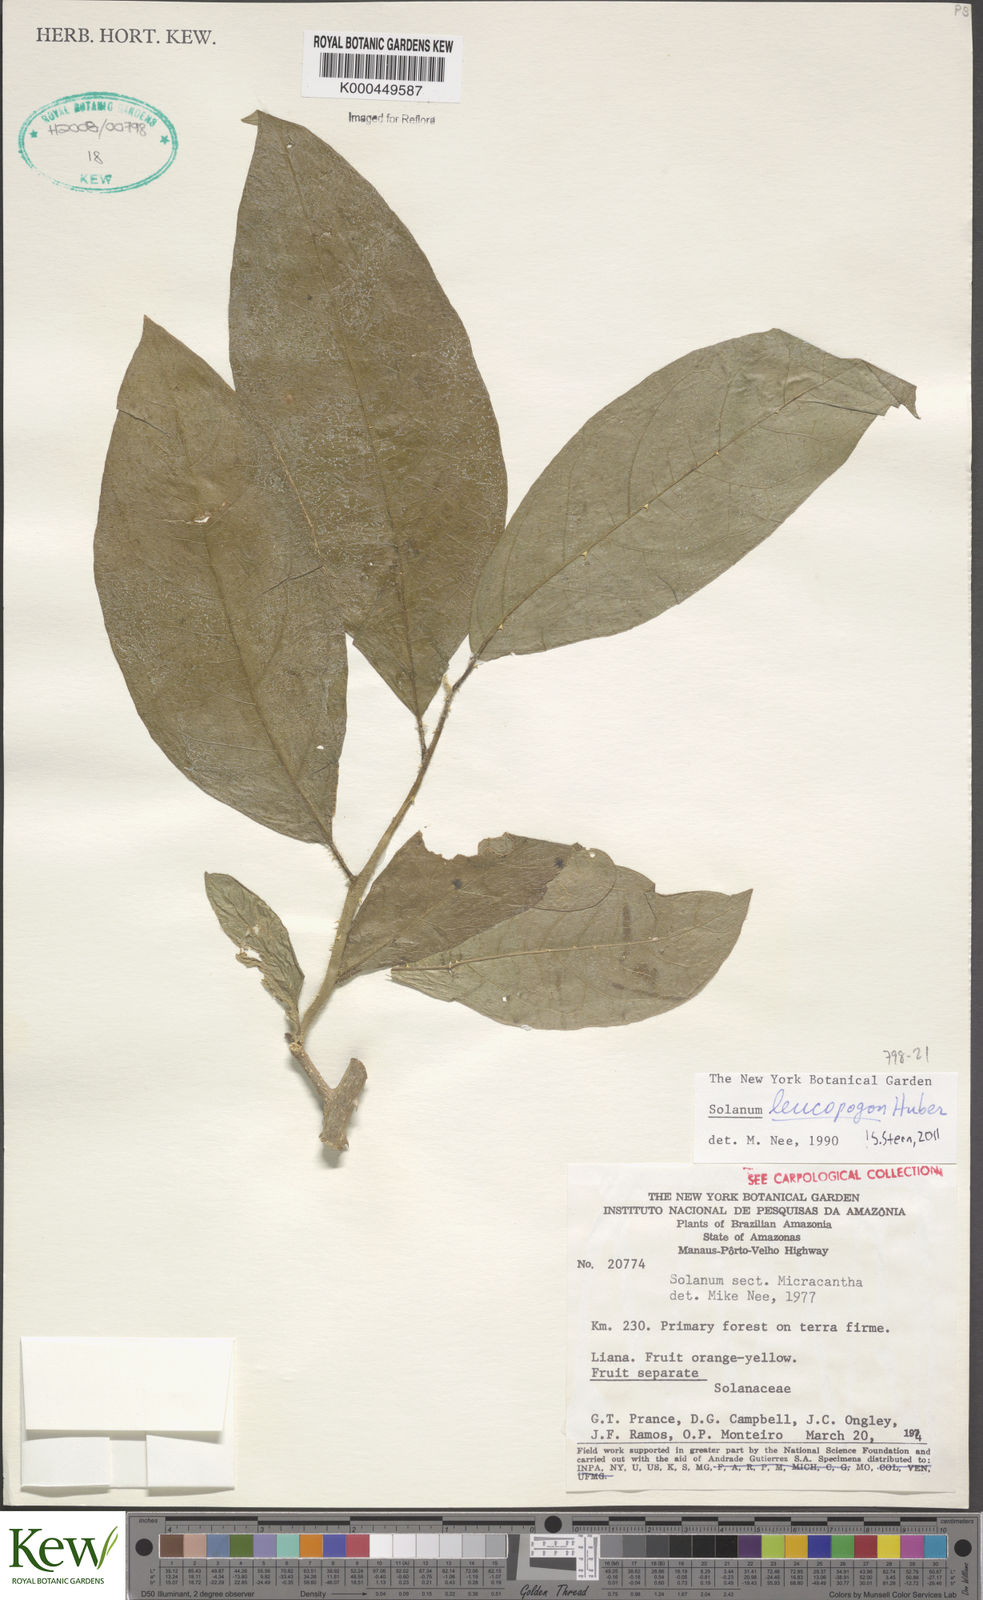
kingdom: Plantae
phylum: Tracheophyta
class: Magnoliopsida
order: Solanales
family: Solanaceae
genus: Solanum
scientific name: Solanum leucopogon
